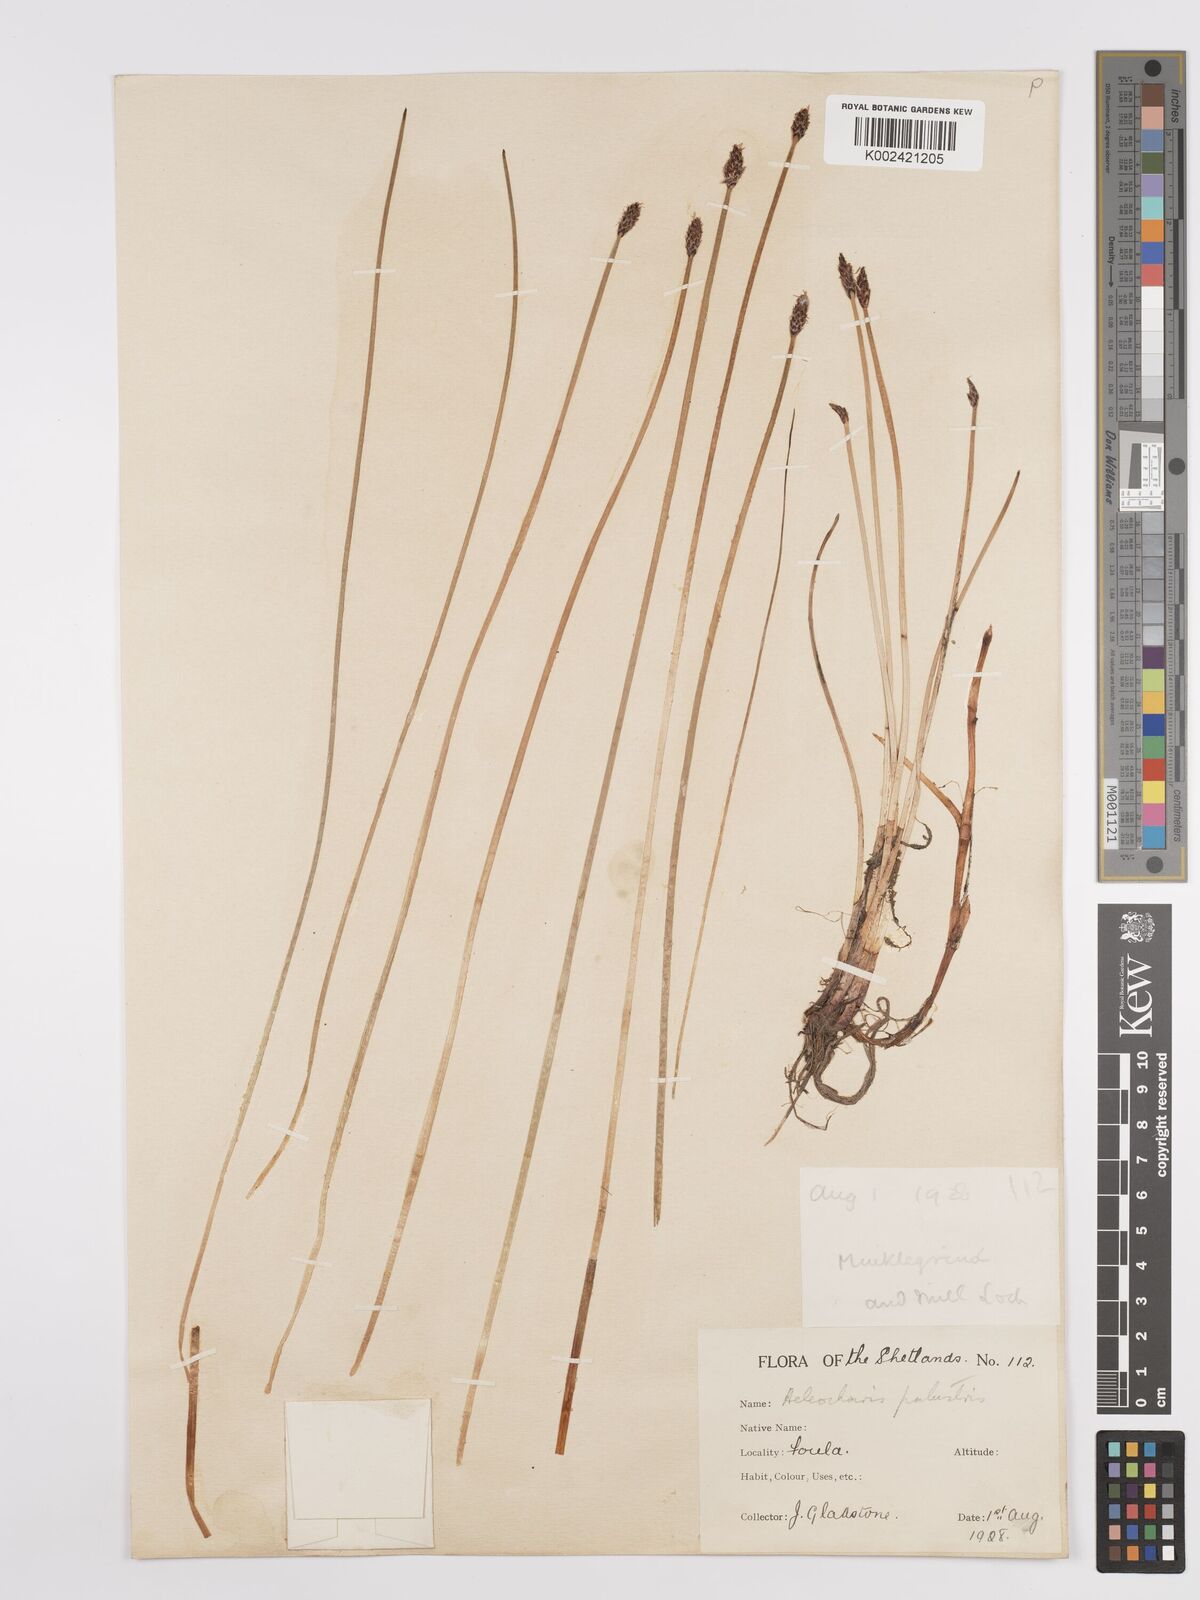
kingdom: Plantae
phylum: Tracheophyta
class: Liliopsida
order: Poales
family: Cyperaceae
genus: Eleocharis
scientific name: Eleocharis palustris
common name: Common spike-rush
